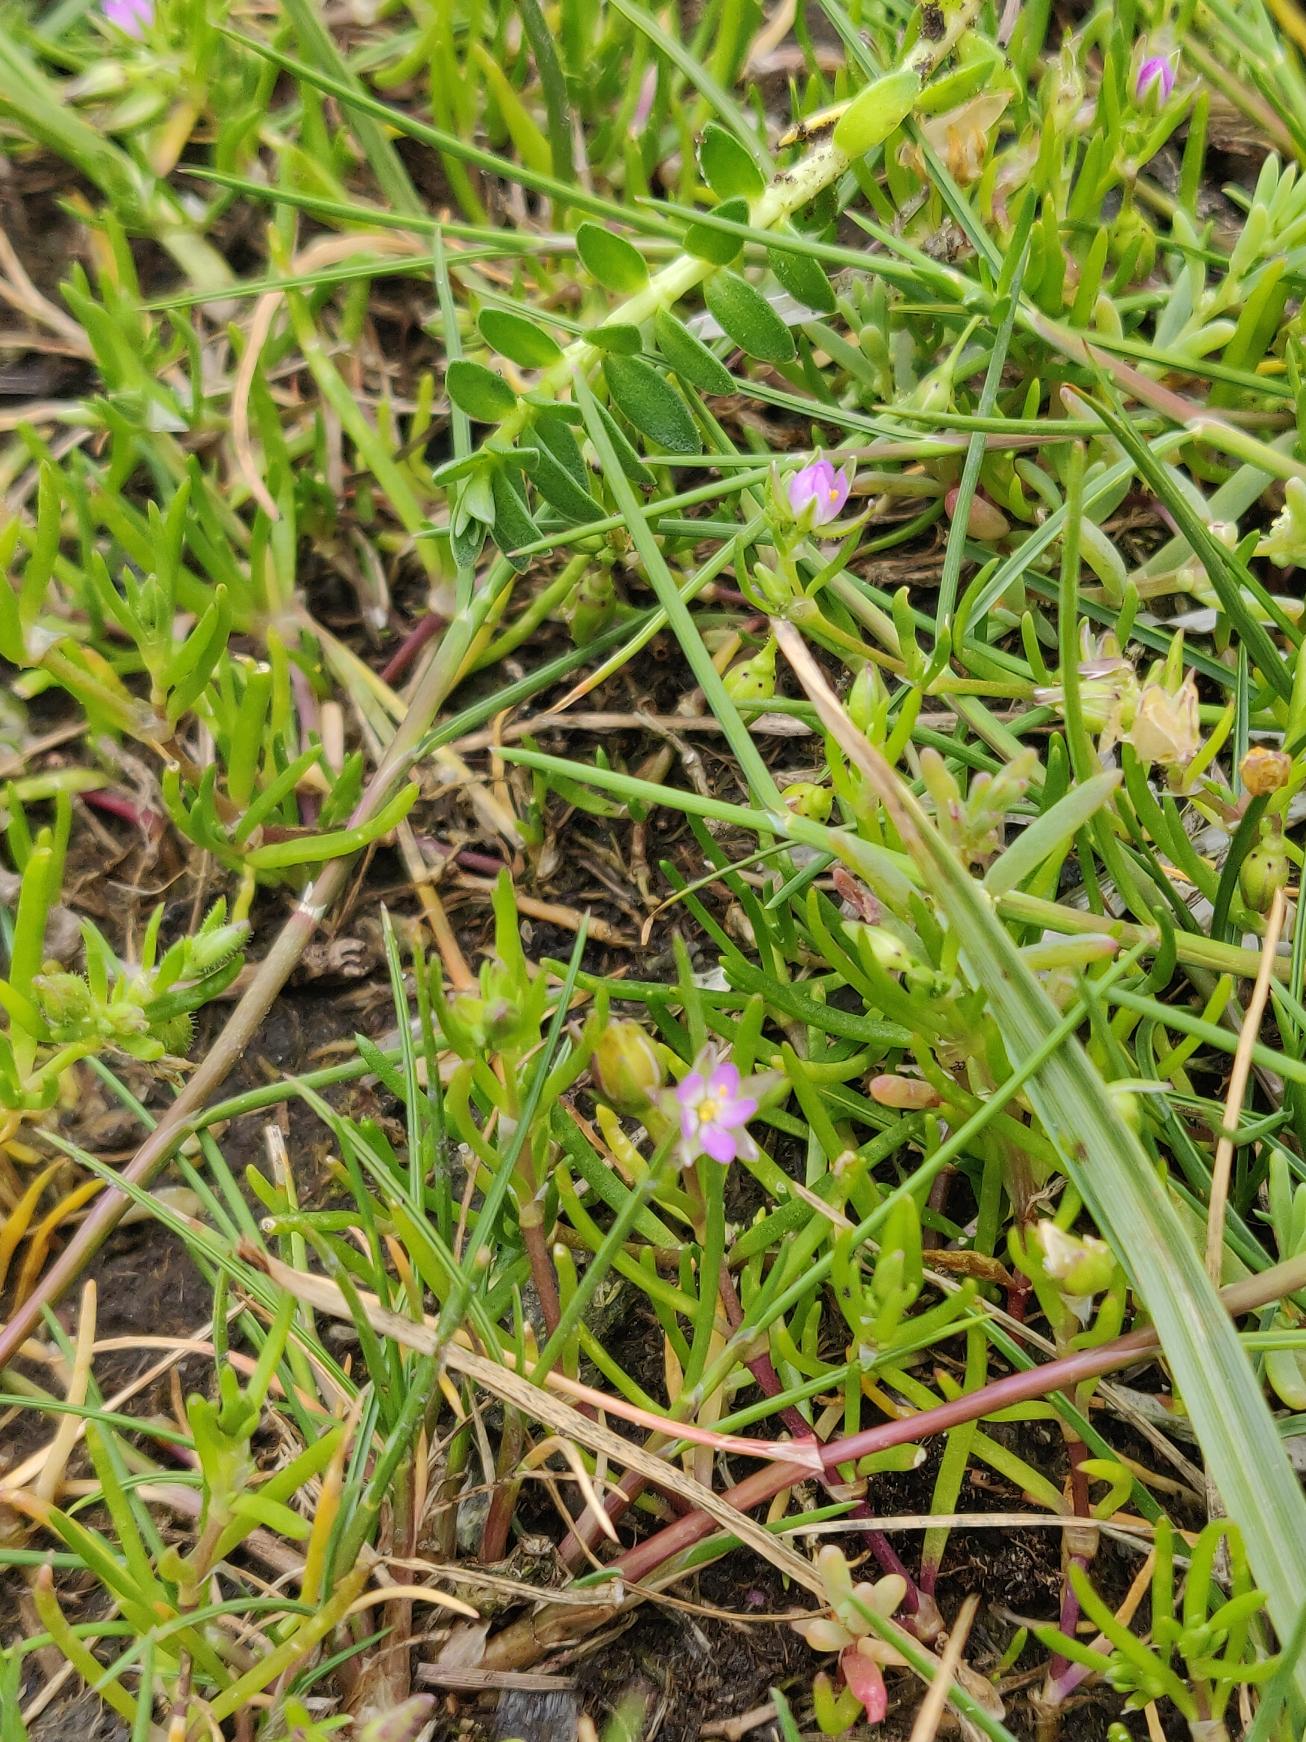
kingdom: Plantae
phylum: Tracheophyta
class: Magnoliopsida
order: Caryophyllales
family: Caryophyllaceae
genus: Spergularia
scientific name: Spergularia marina
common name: Kødet hindeknæ
